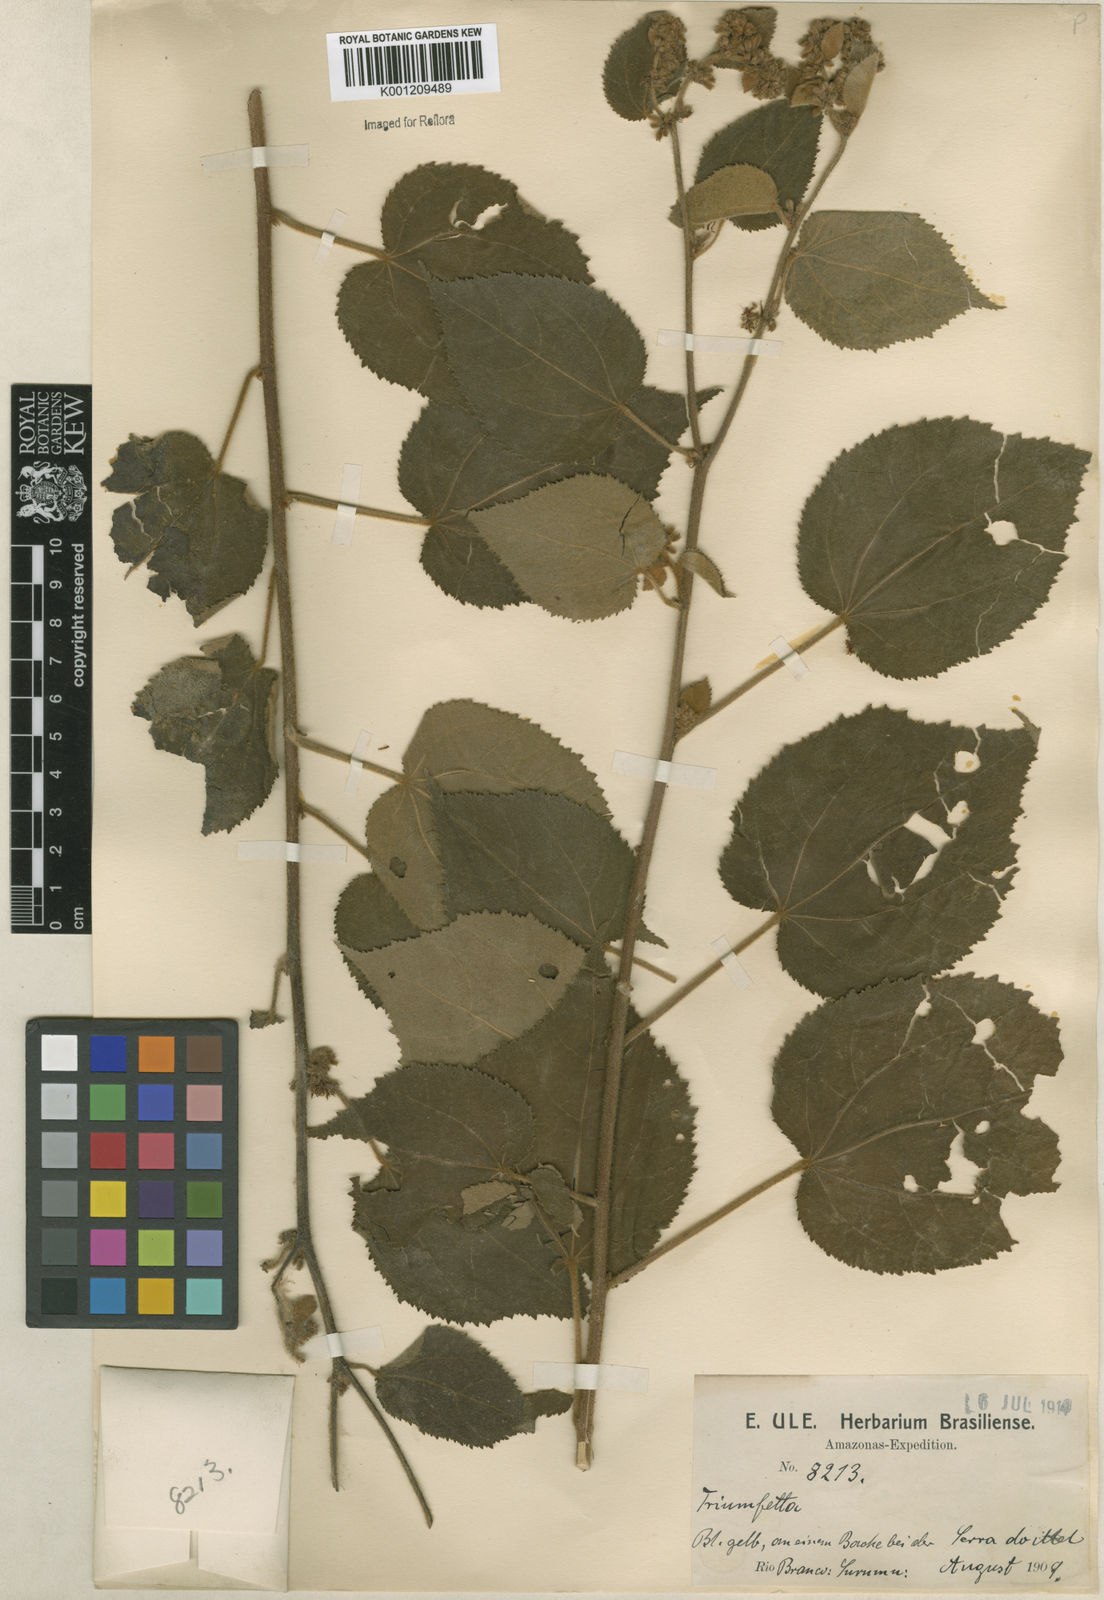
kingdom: Plantae
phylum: Tracheophyta
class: Magnoliopsida
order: Malvales
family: Malvaceae
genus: Triumfetta
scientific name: Triumfetta althaeoides
